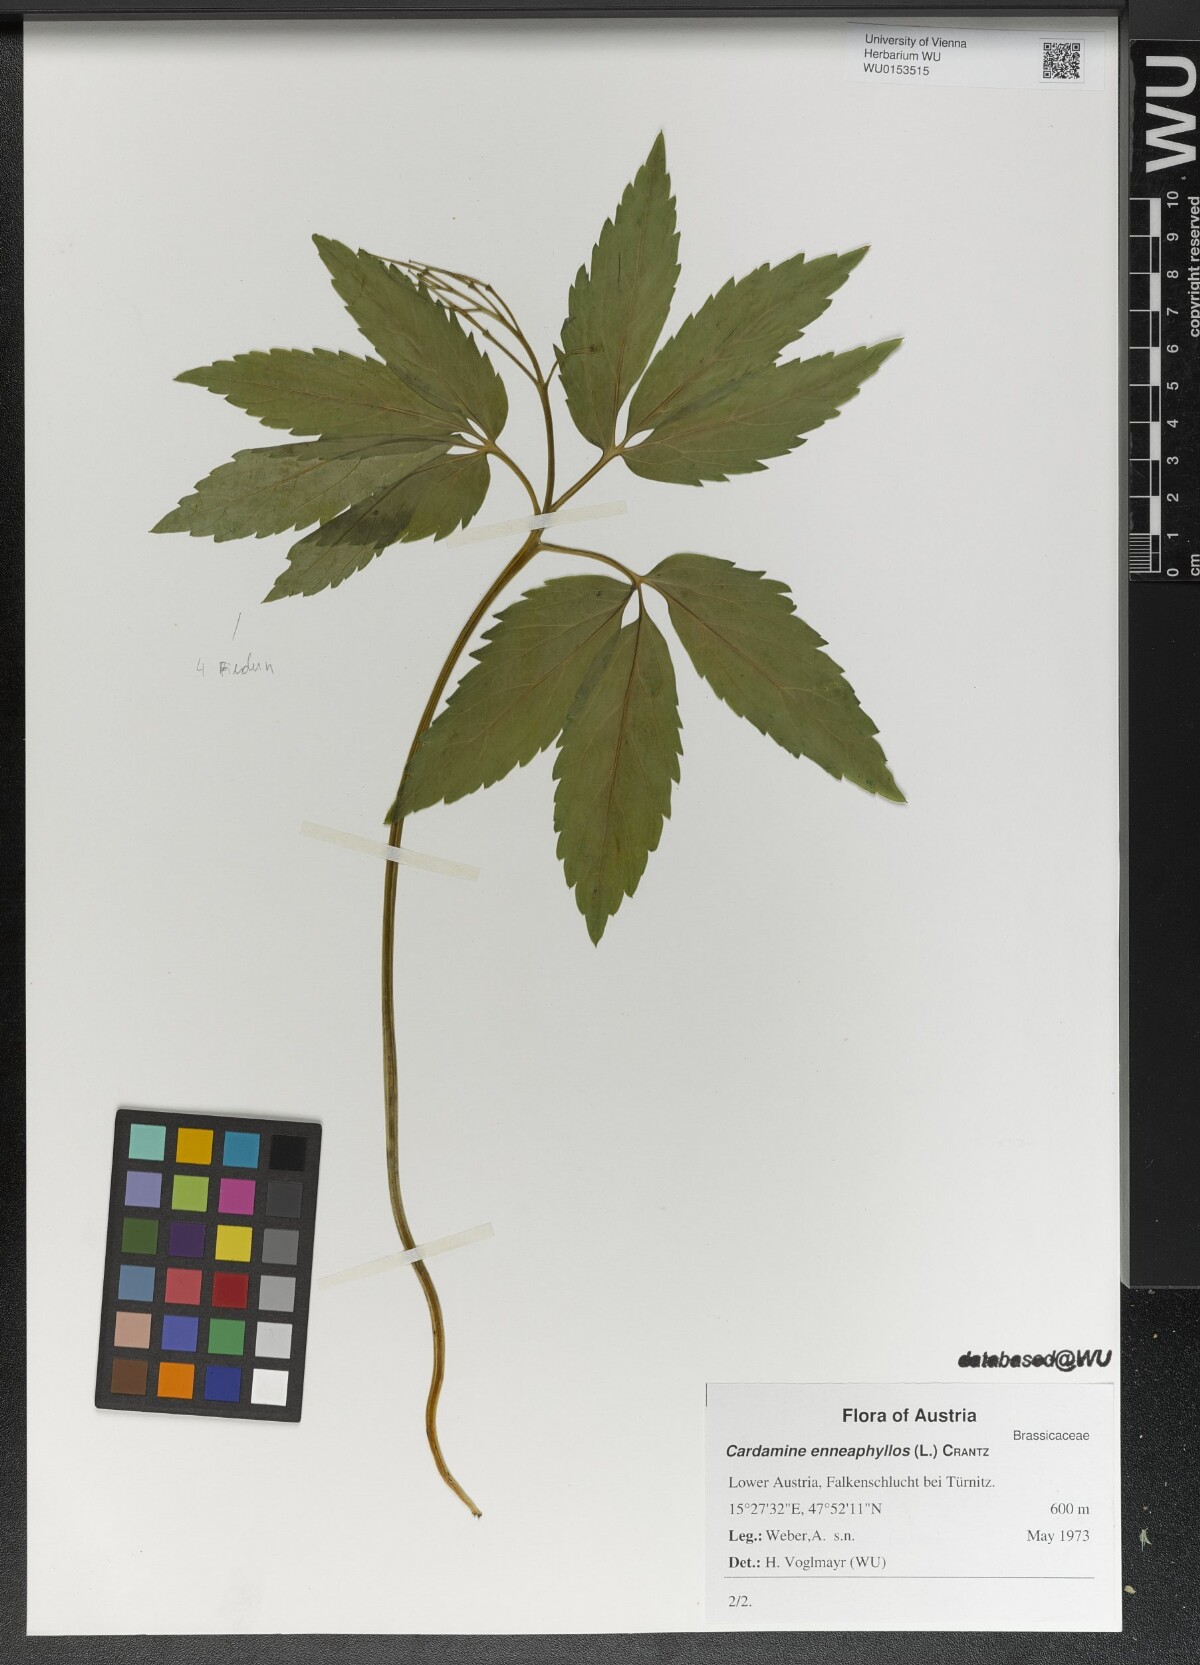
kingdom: Plantae
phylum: Tracheophyta
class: Magnoliopsida
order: Brassicales
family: Brassicaceae
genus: Cardamine
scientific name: Cardamine enneaphyllos
